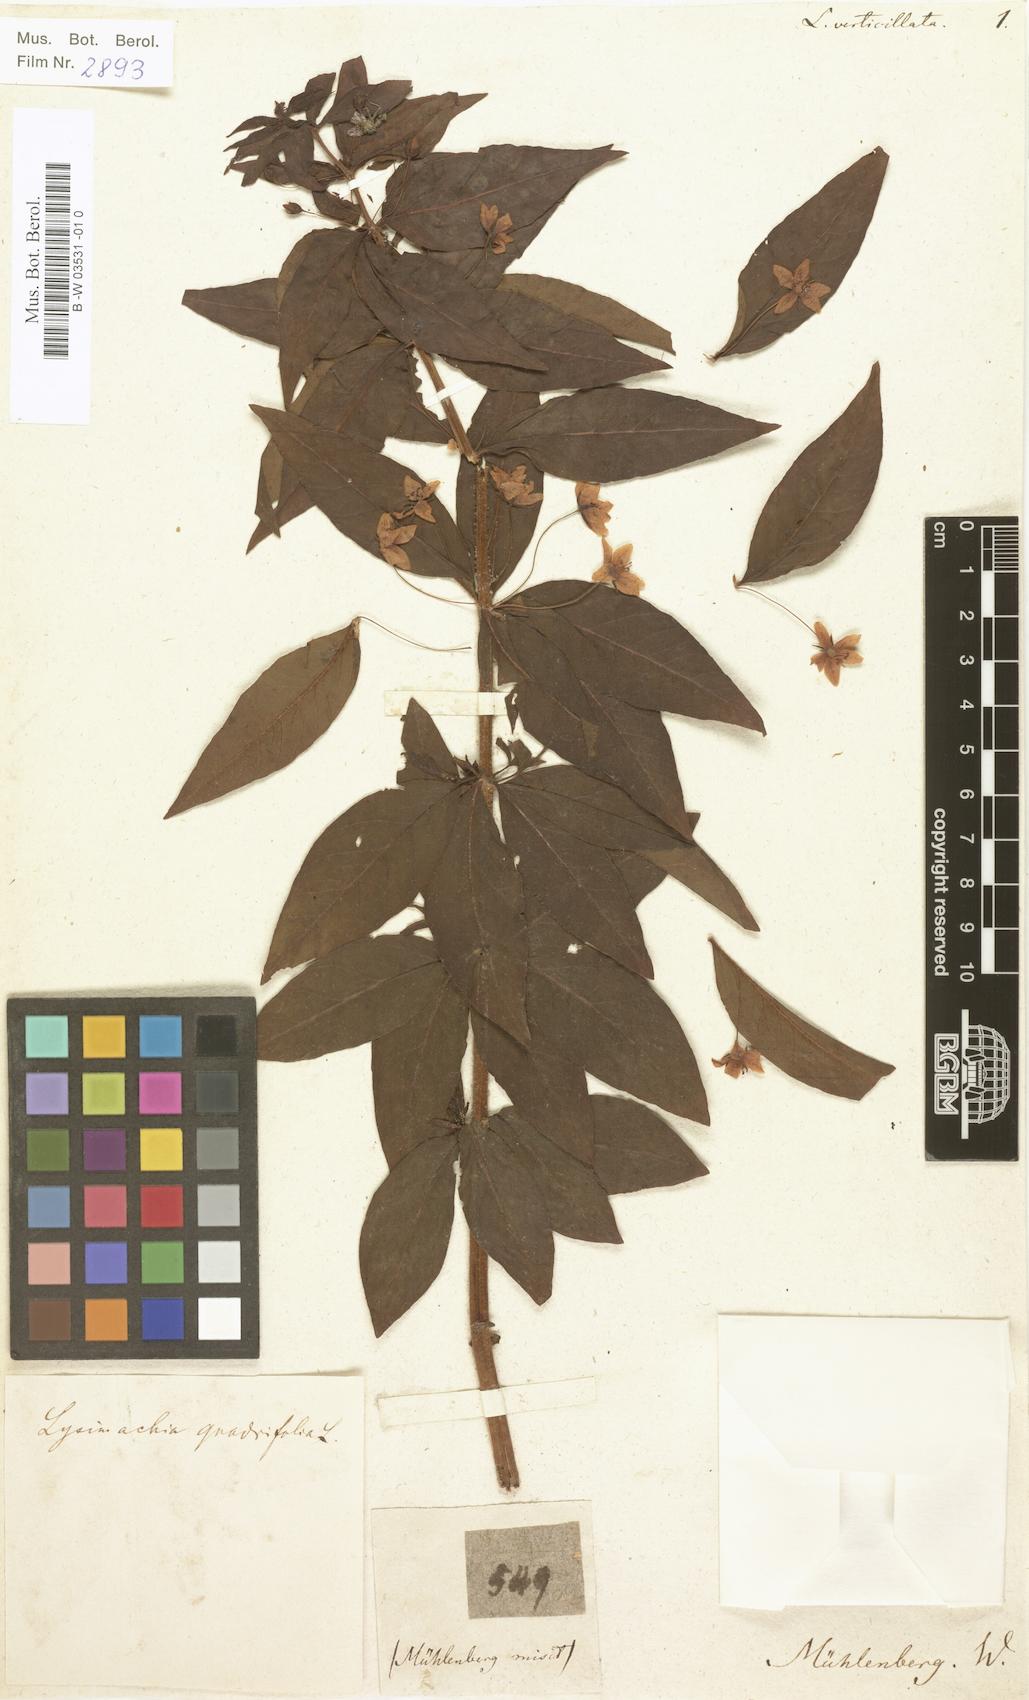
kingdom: Plantae
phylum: Tracheophyta
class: Magnoliopsida
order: Ericales
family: Primulaceae
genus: Lysimachia
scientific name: Lysimachia
